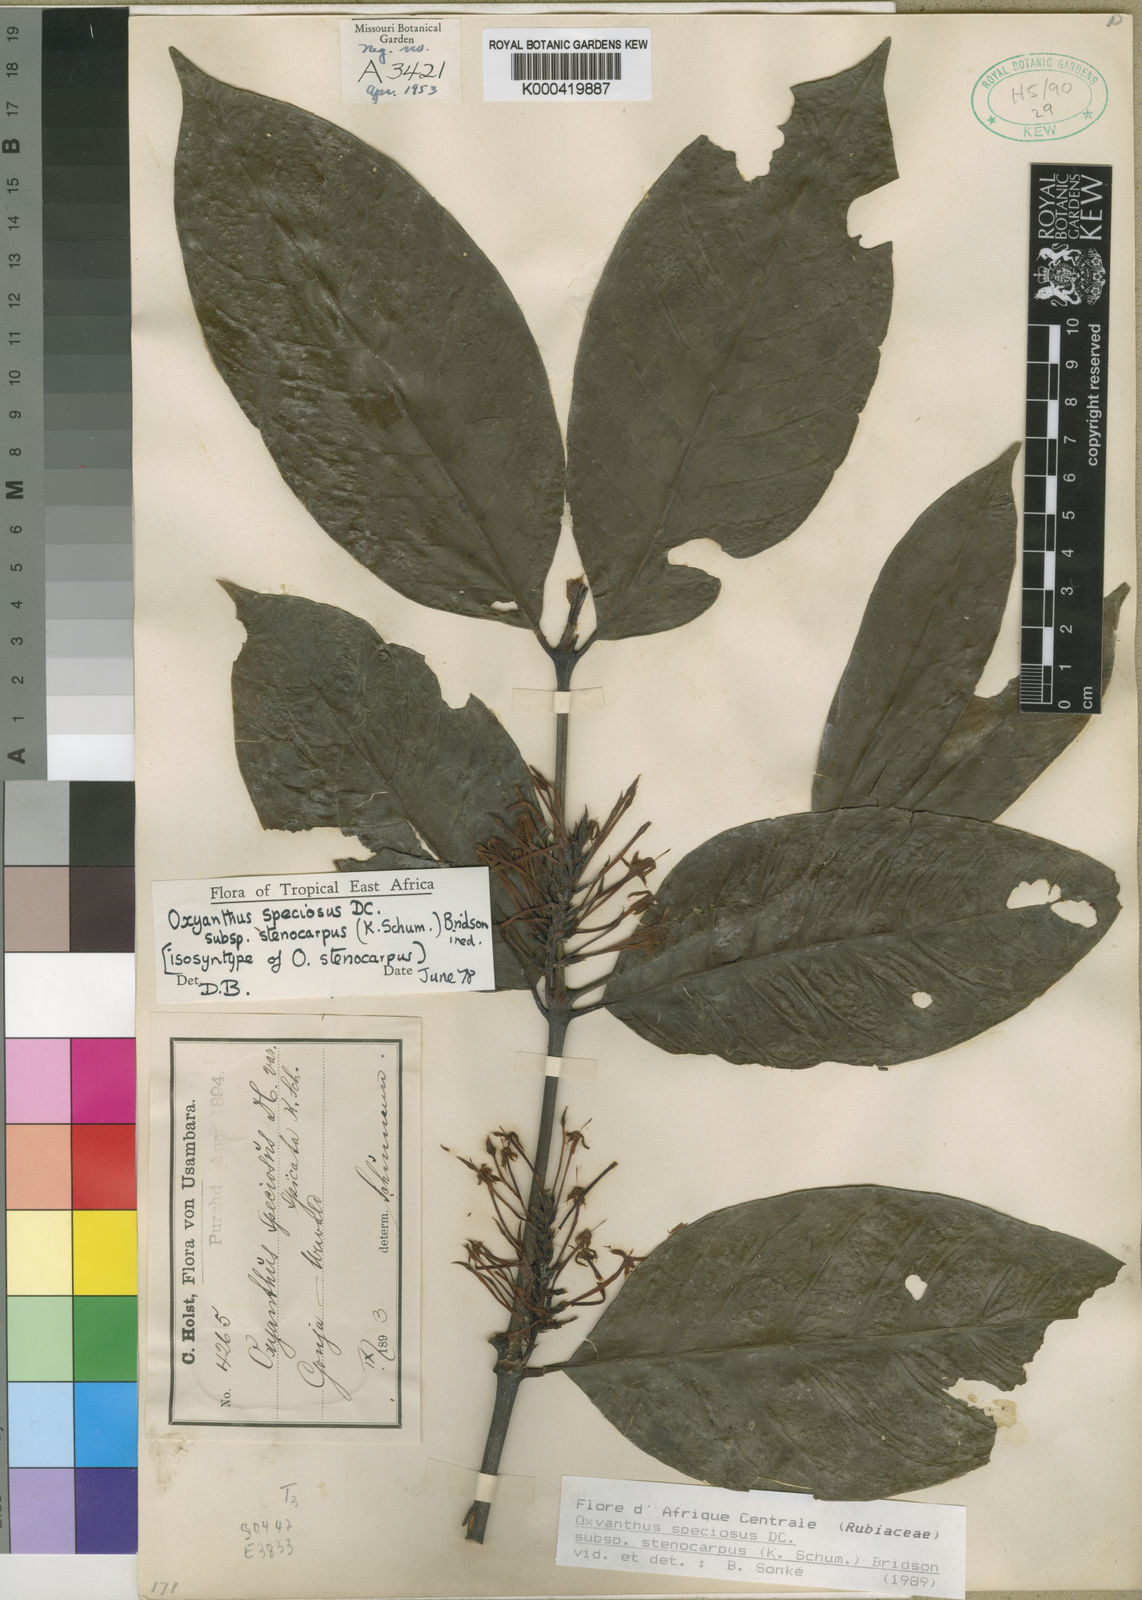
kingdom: Plantae
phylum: Tracheophyta
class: Magnoliopsida
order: Gentianales
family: Rubiaceae
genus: Oxyanthus
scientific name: Oxyanthus speciosus
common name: Whipstick loquat
